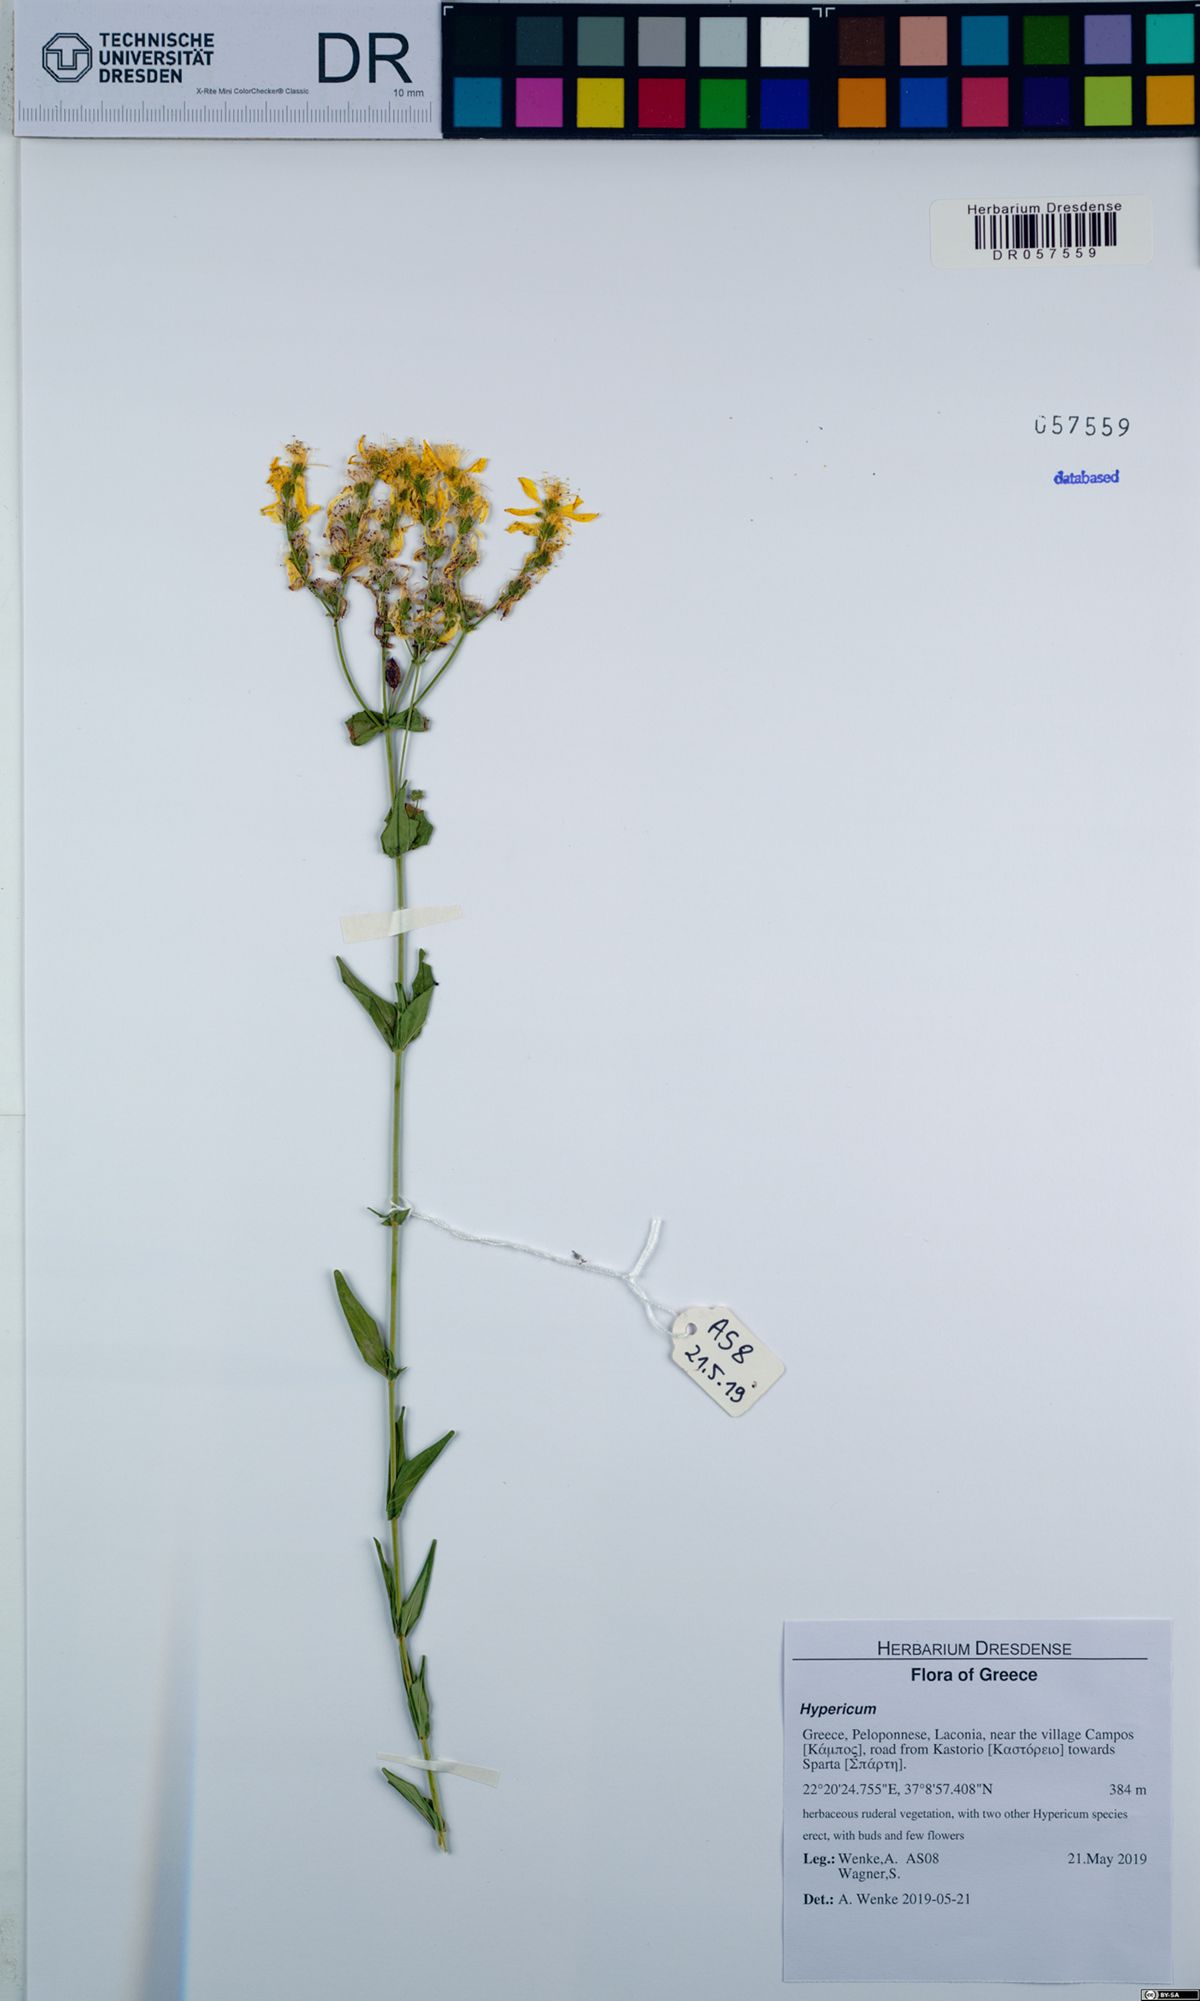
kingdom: Plantae
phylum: Tracheophyta
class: Magnoliopsida
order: Malpighiales
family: Hypericaceae
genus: Hypericum
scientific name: Hypericum perfoliatum
